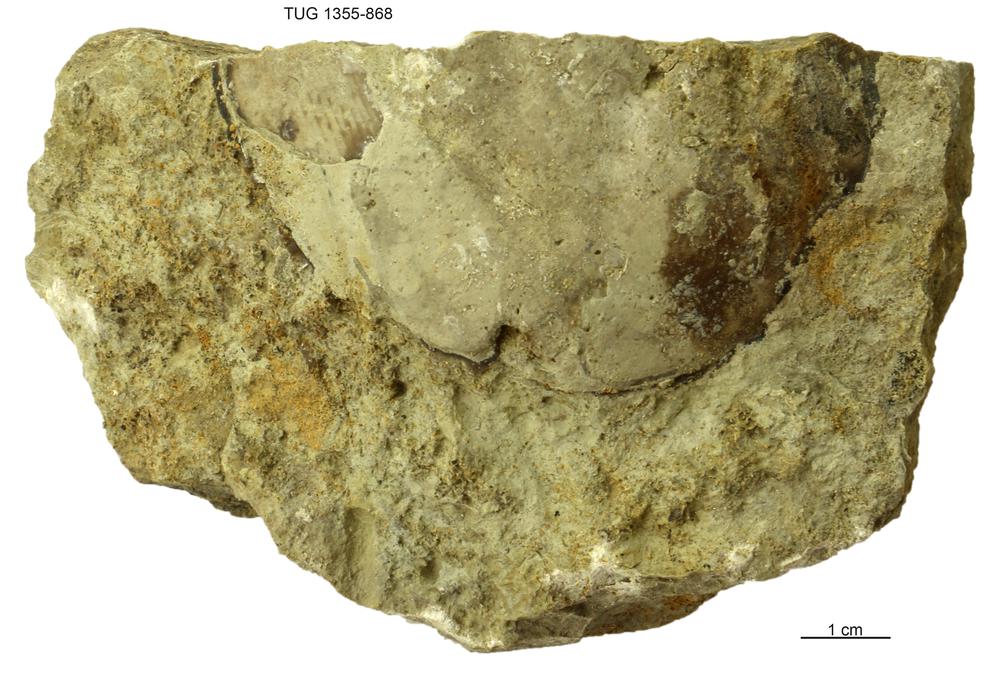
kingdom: Animalia
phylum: Arthropoda
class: Trilobita
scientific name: Trilobita
